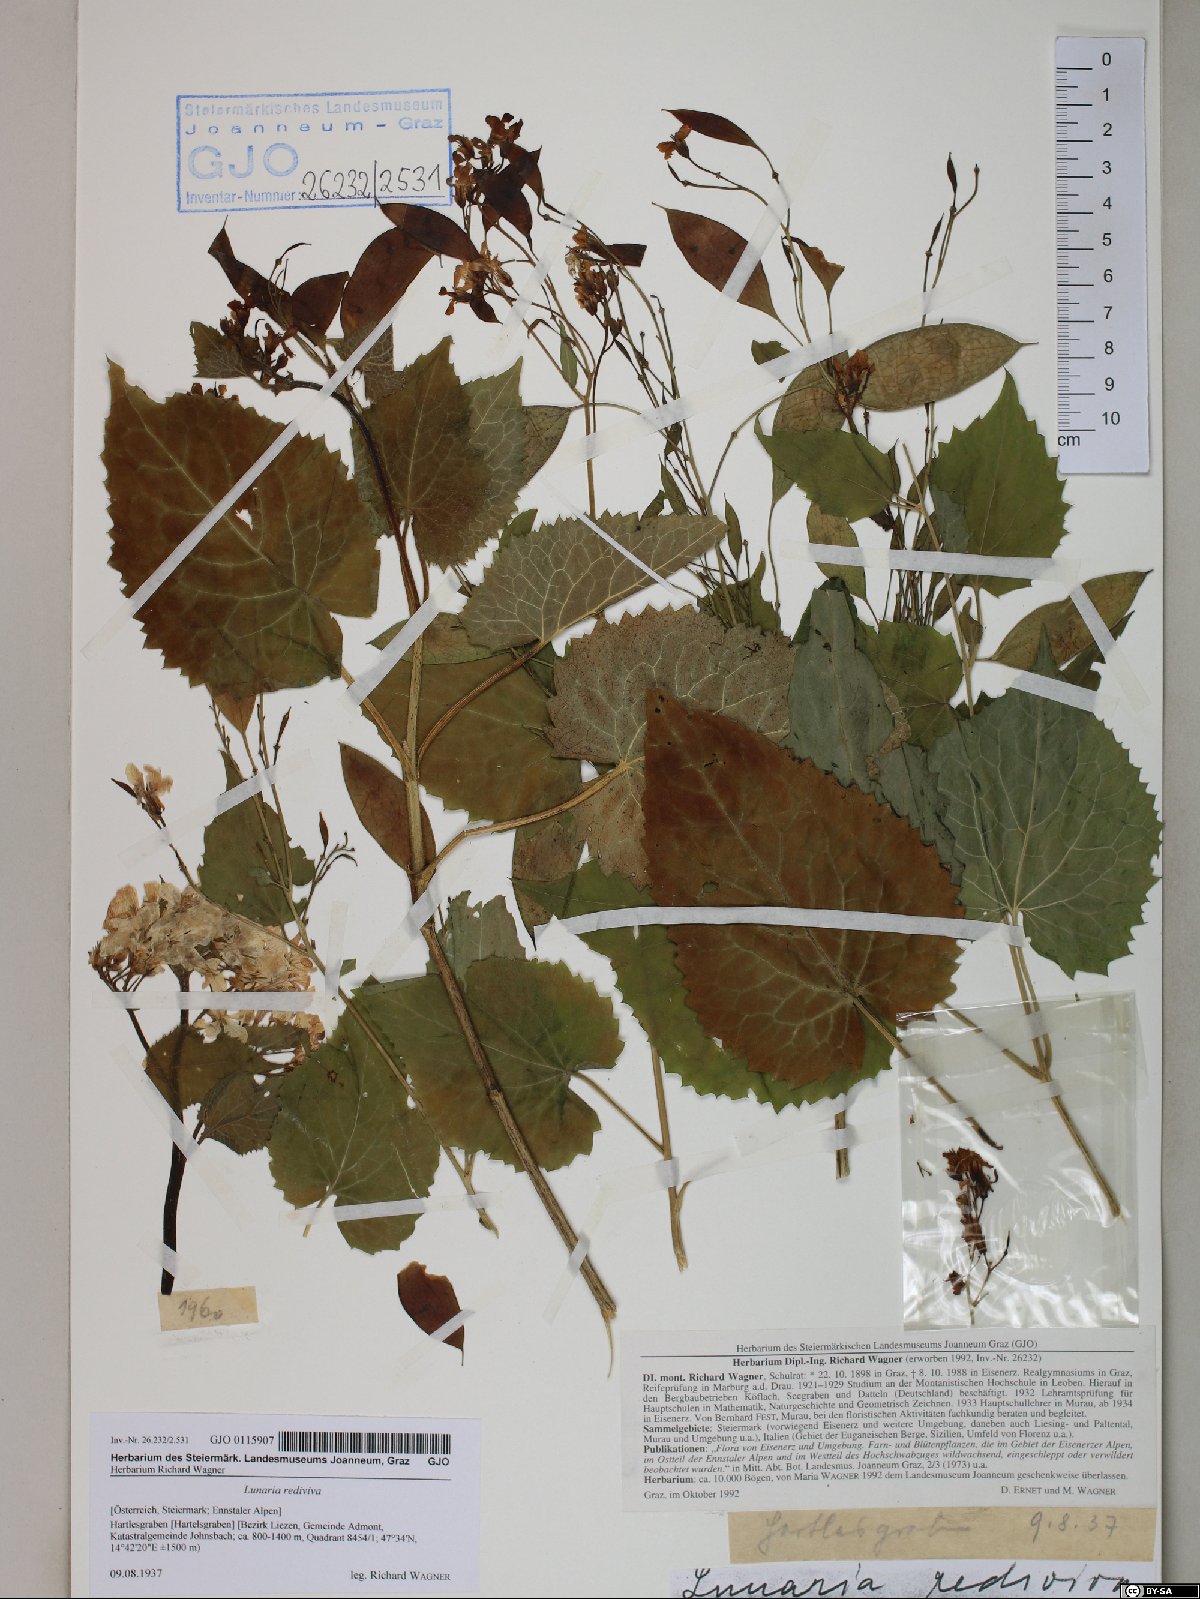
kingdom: Plantae
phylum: Tracheophyta
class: Magnoliopsida
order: Brassicales
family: Brassicaceae
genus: Lunaria
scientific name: Lunaria rediviva
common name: Perennial honesty
